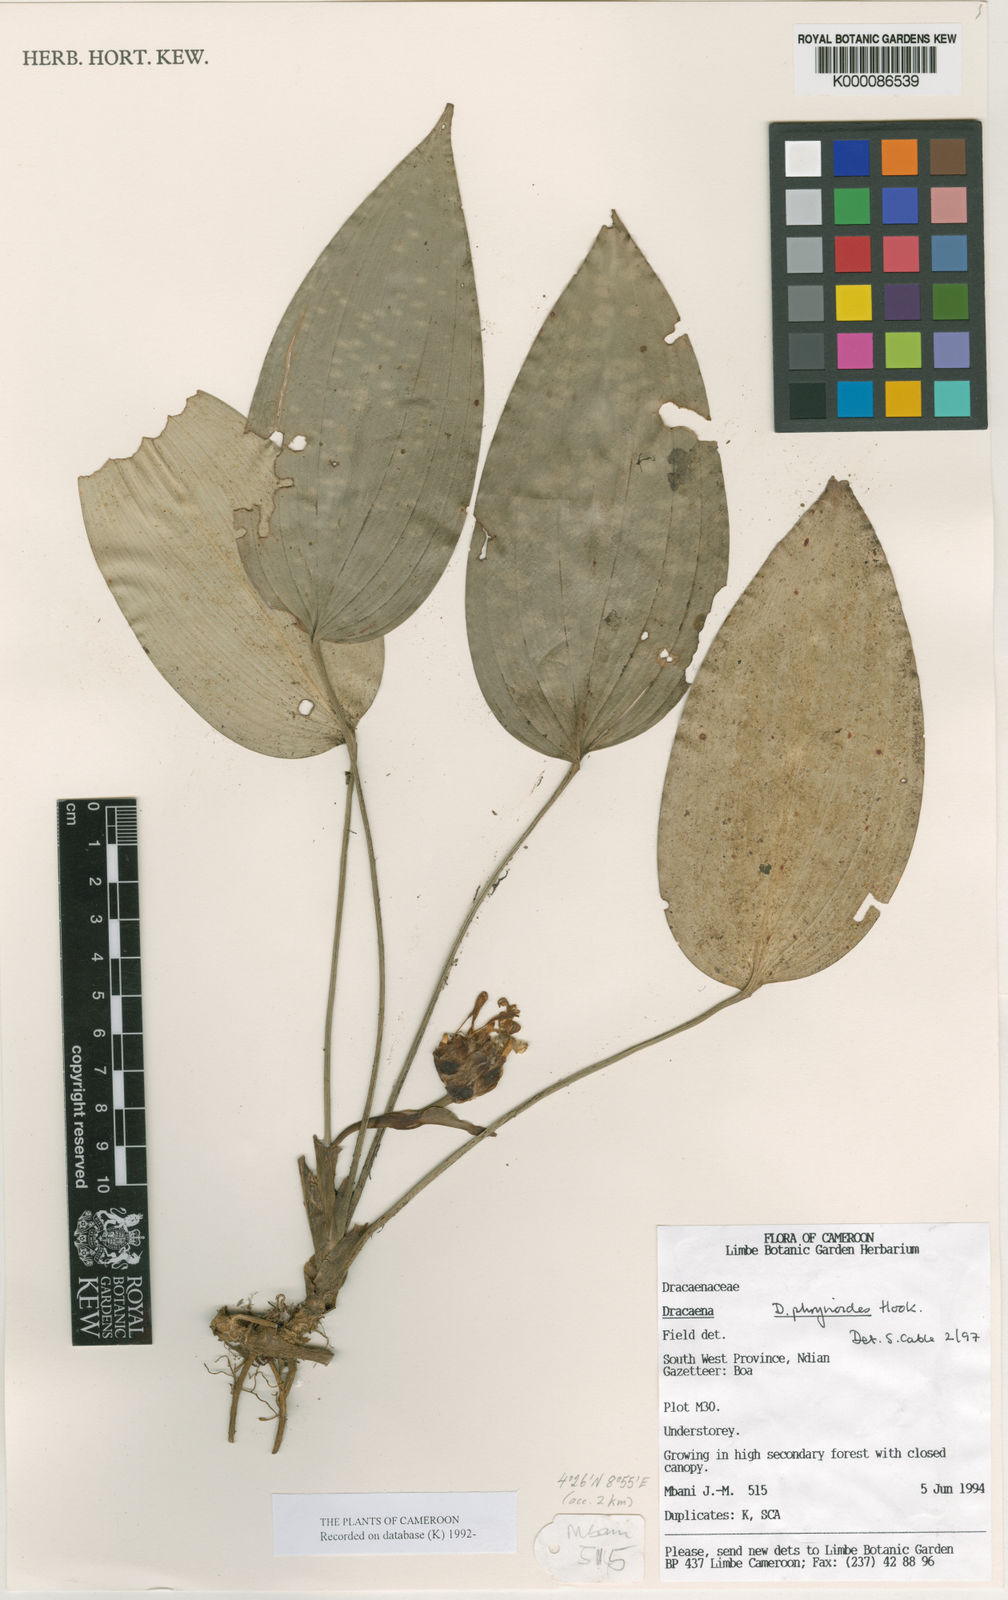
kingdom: Plantae
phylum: Tracheophyta
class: Liliopsida
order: Asparagales
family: Asparagaceae
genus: Dracaena
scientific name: Dracaena phrynioides
